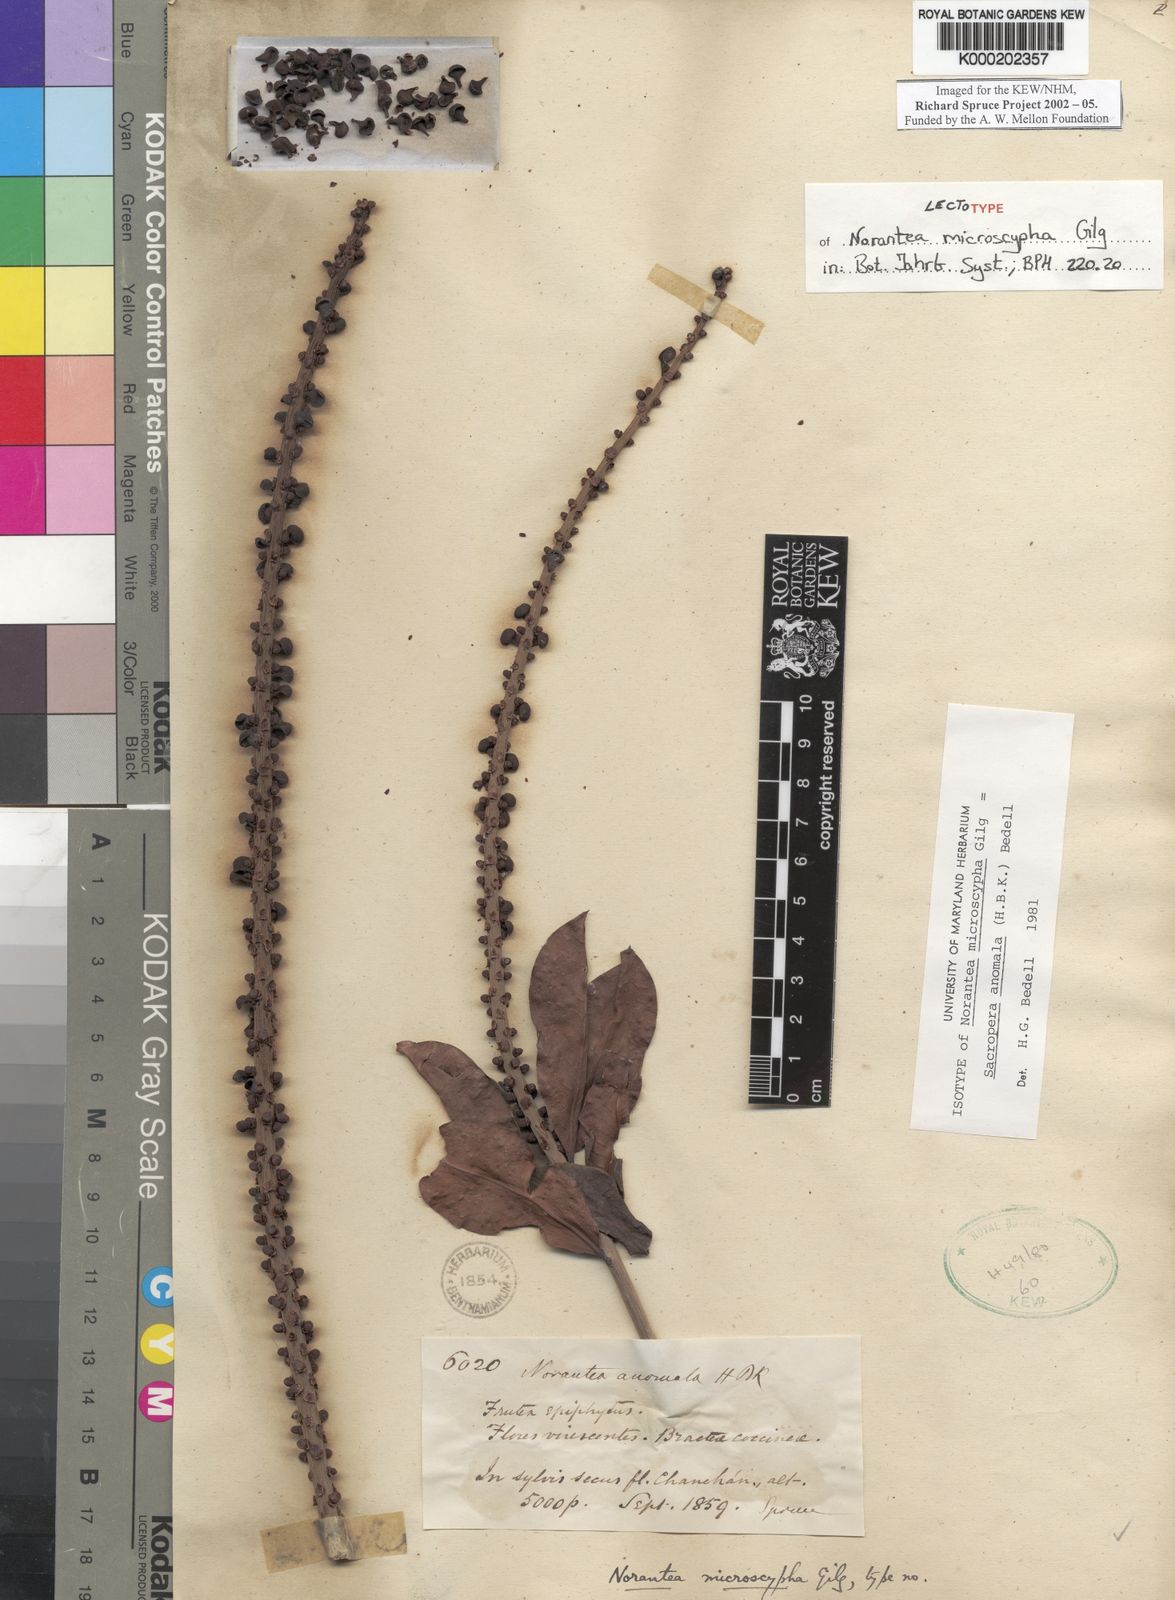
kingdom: Plantae
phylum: Tracheophyta
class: Magnoliopsida
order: Ericales
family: Marcgraviaceae
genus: Sarcopera
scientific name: Sarcopera anomala
